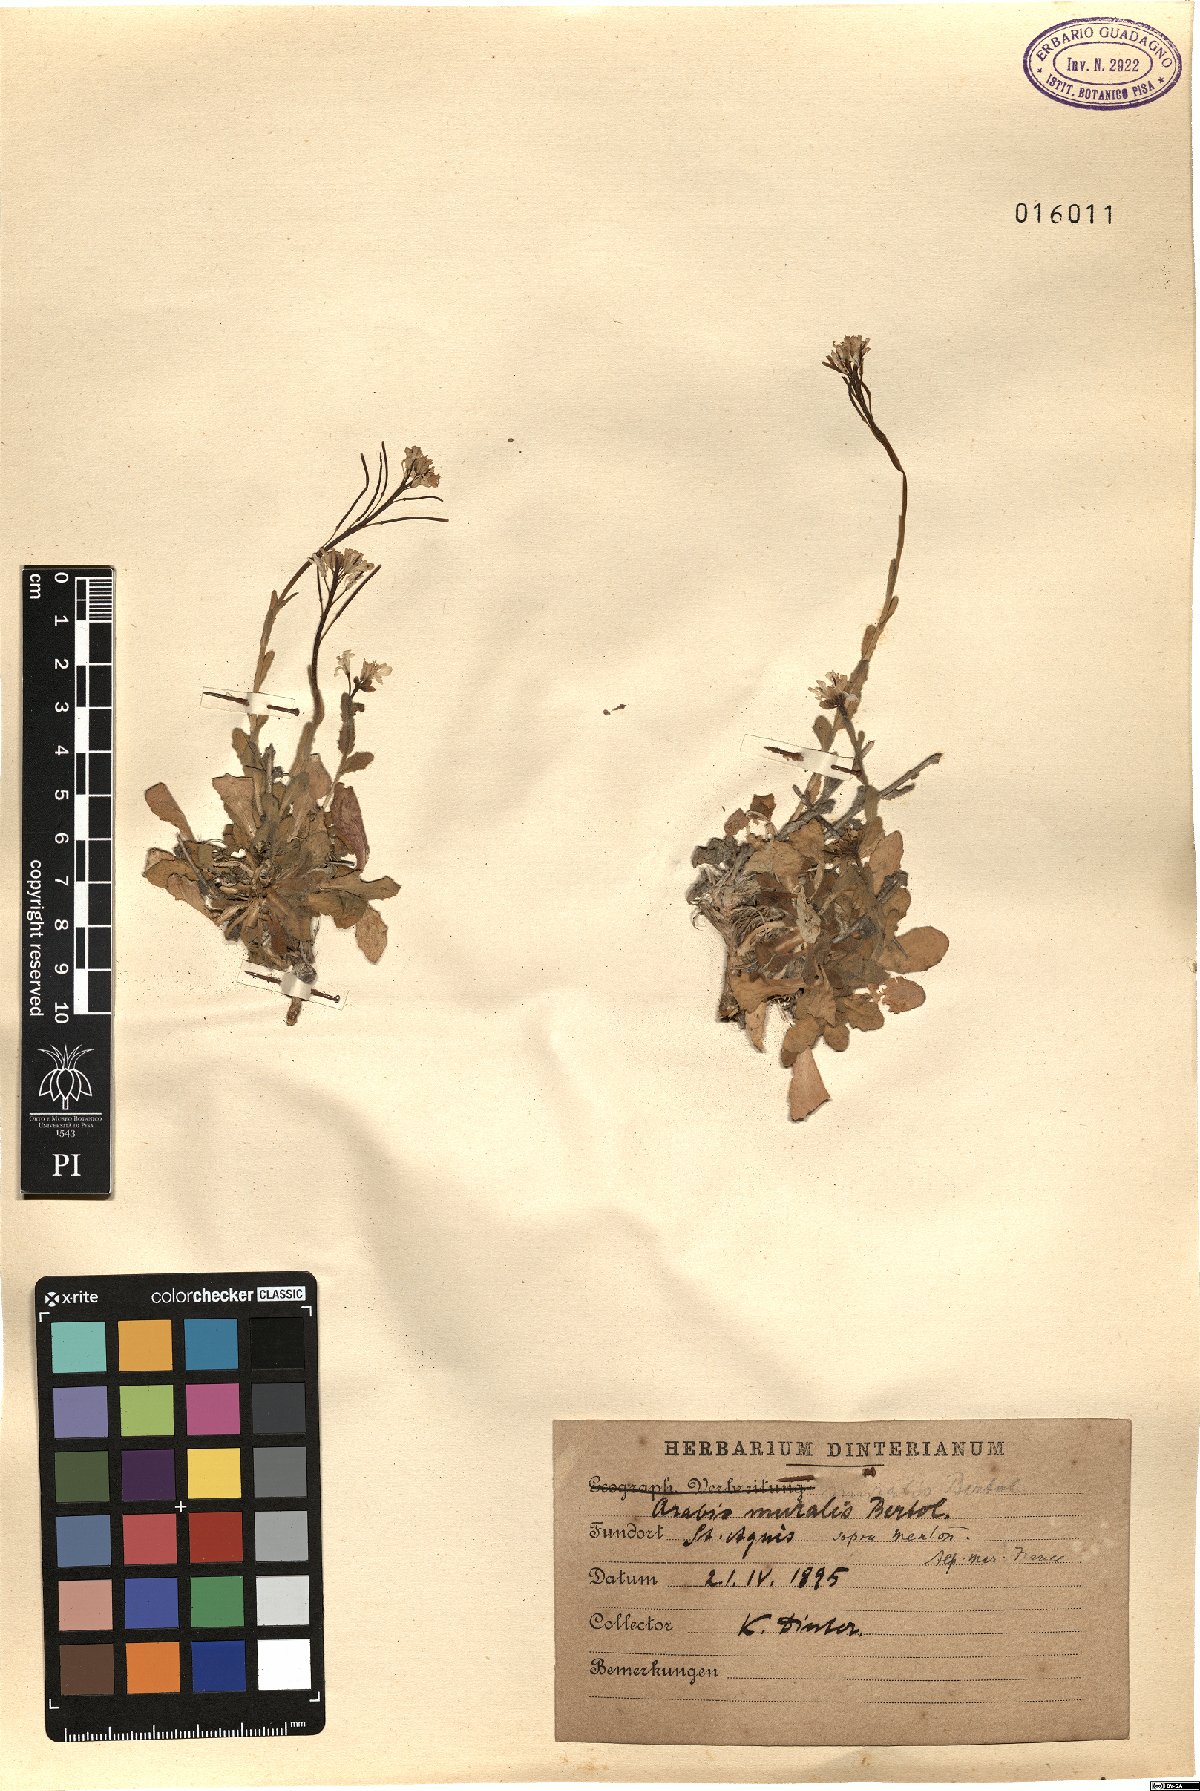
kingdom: Plantae
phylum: Tracheophyta
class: Magnoliopsida
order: Brassicales
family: Brassicaceae
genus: Arabis
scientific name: Arabis collina
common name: Rosy cress
